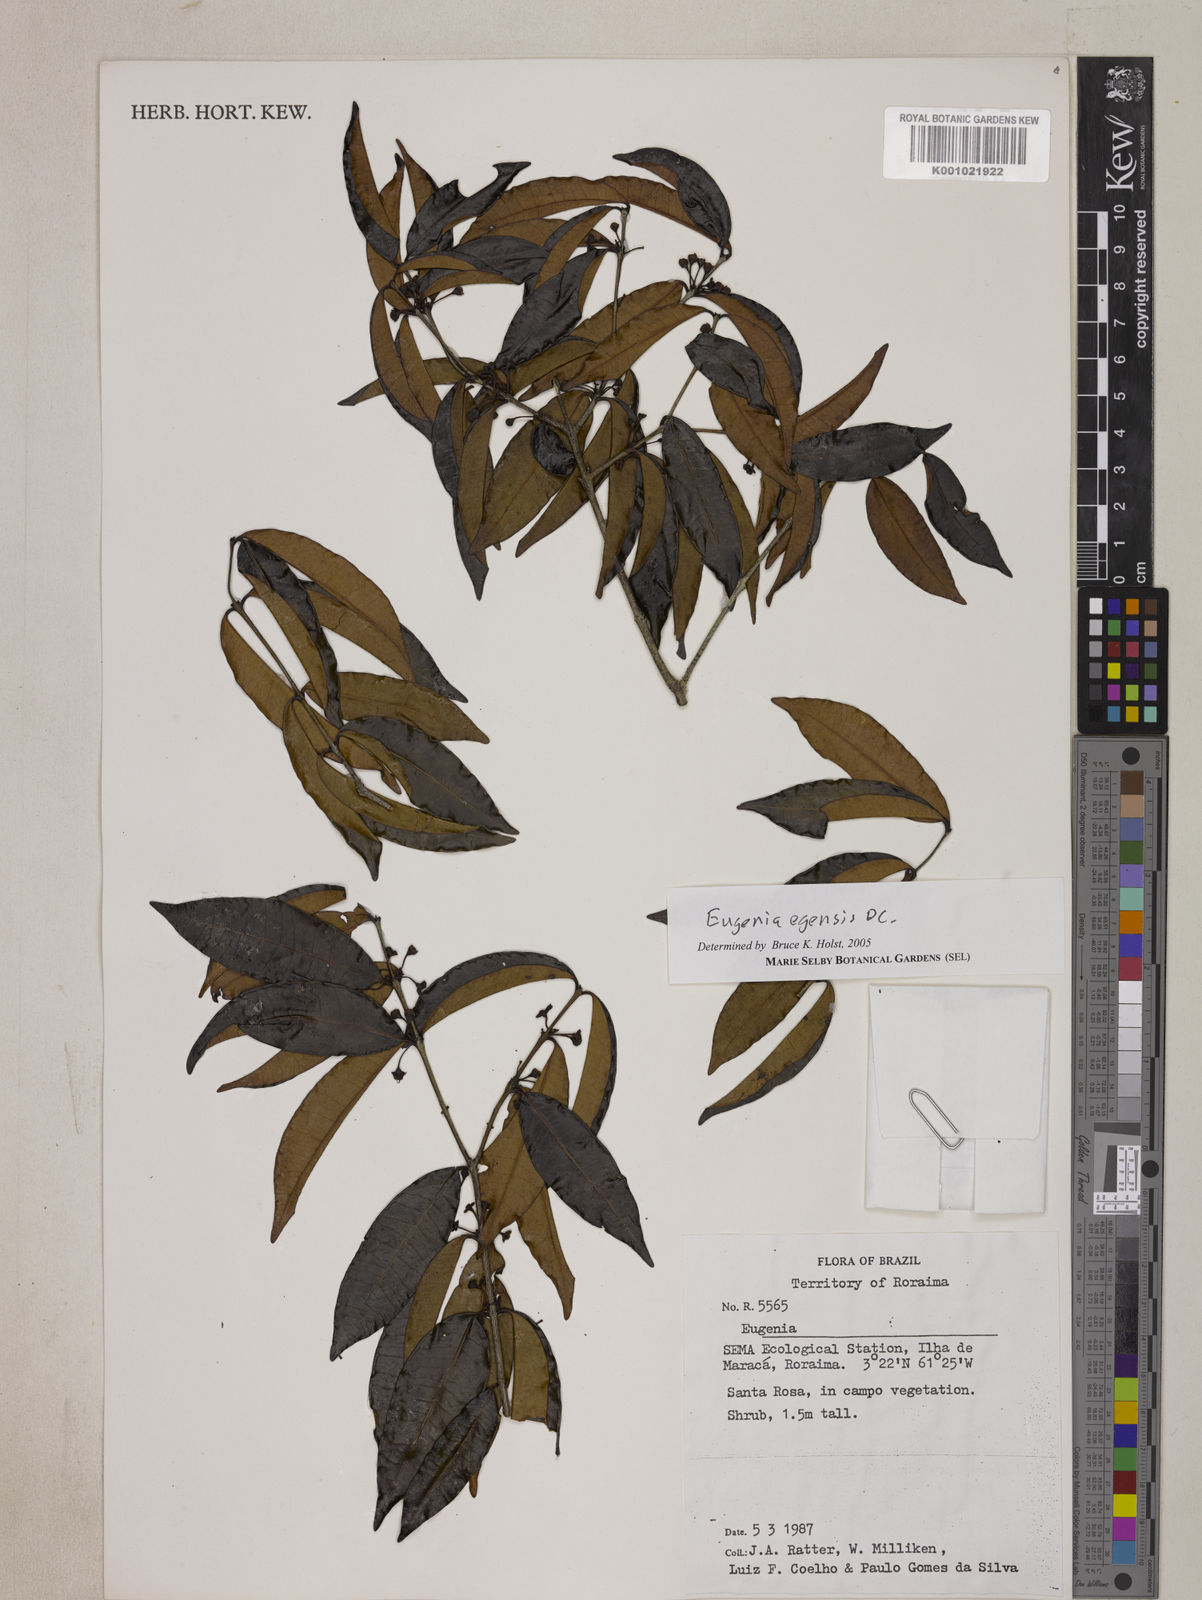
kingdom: Plantae
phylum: Tracheophyta
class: Magnoliopsida
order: Myrtales
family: Myrtaceae
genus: Eugenia
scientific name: Eugenia egensis
